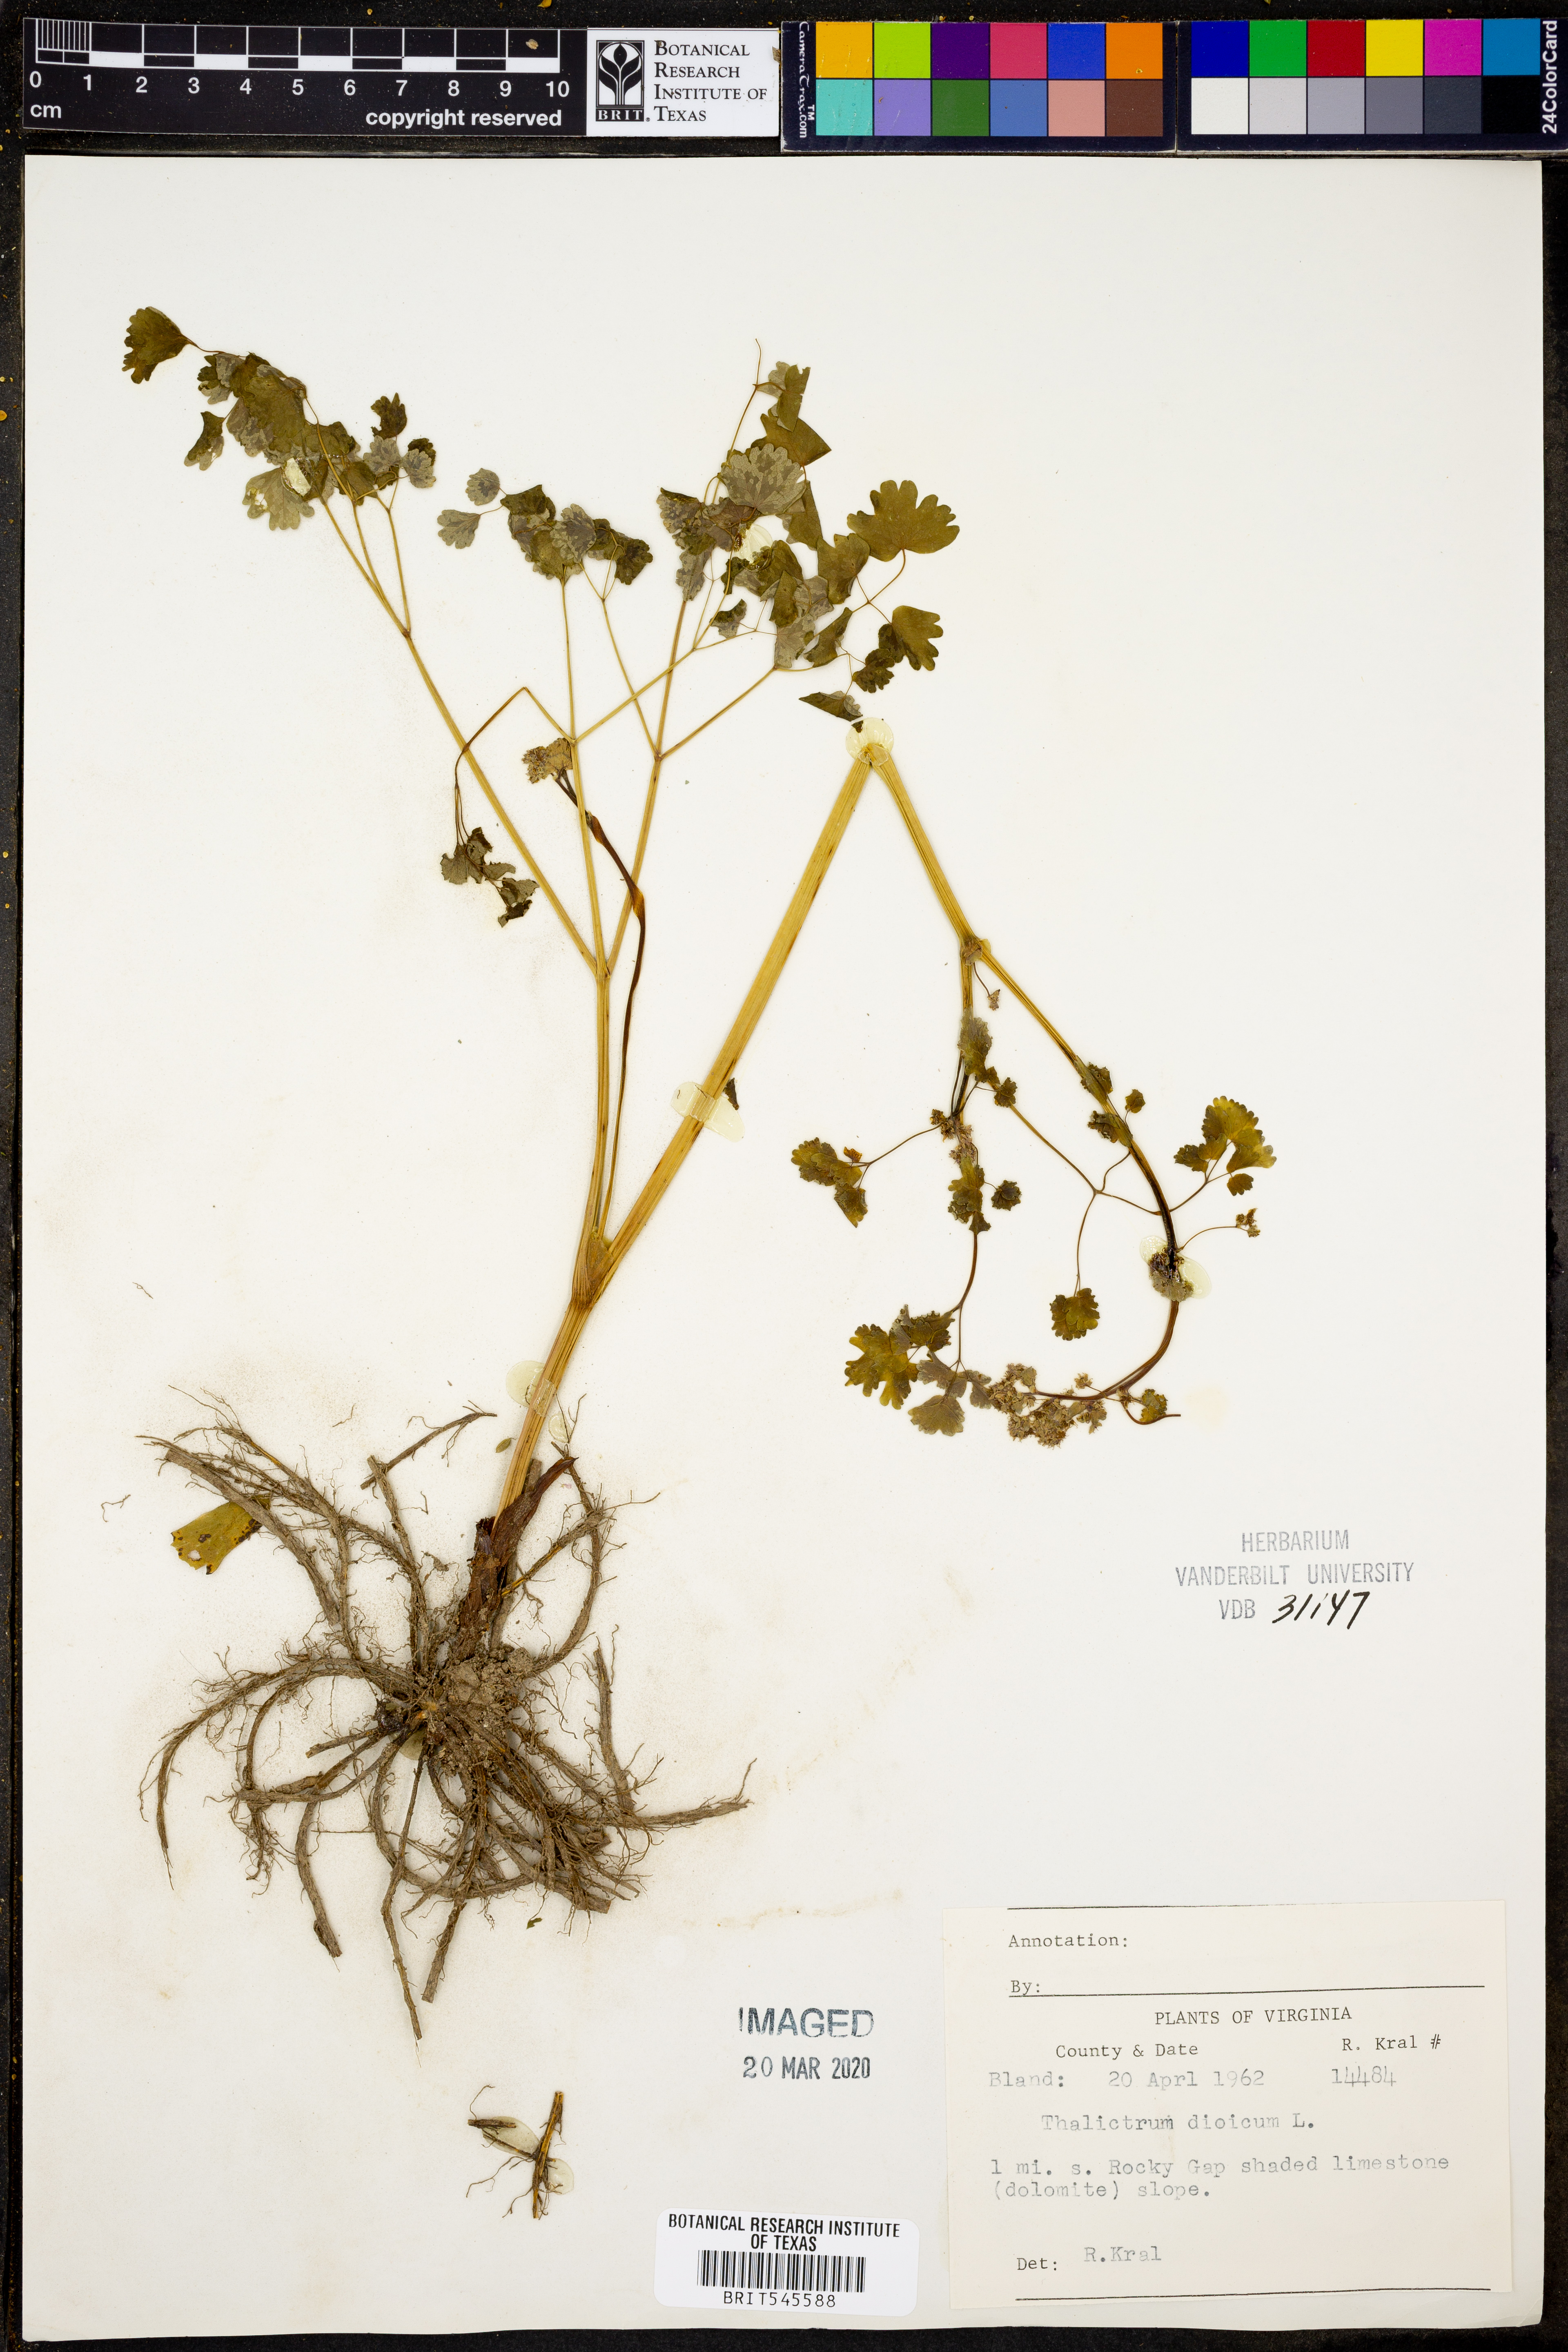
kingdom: Plantae
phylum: Tracheophyta
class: Magnoliopsida
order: Ranunculales
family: Ranunculaceae
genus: Thalictrum
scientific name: Thalictrum dioicum
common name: Early meadow-rue
